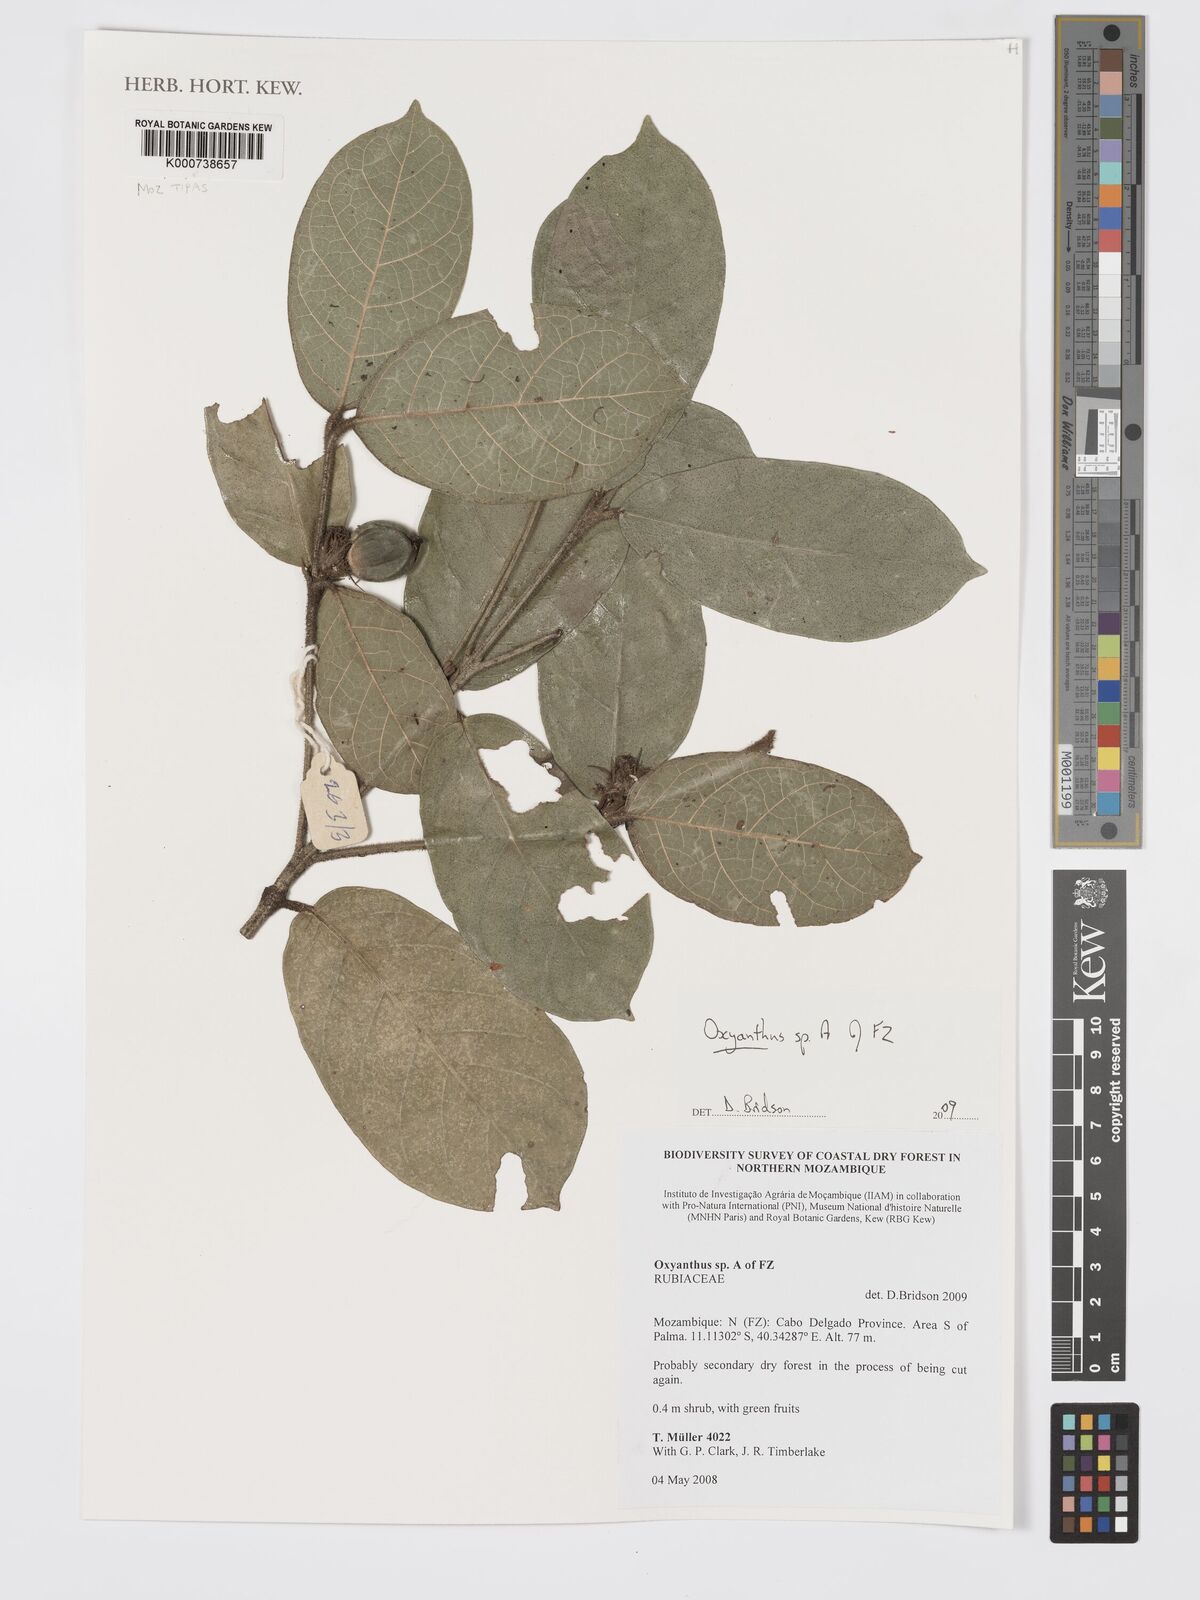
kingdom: Plantae
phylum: Tracheophyta
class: Magnoliopsida
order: Gentianales
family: Rubiaceae
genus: Oxyanthus
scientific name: Oxyanthus strigosus
